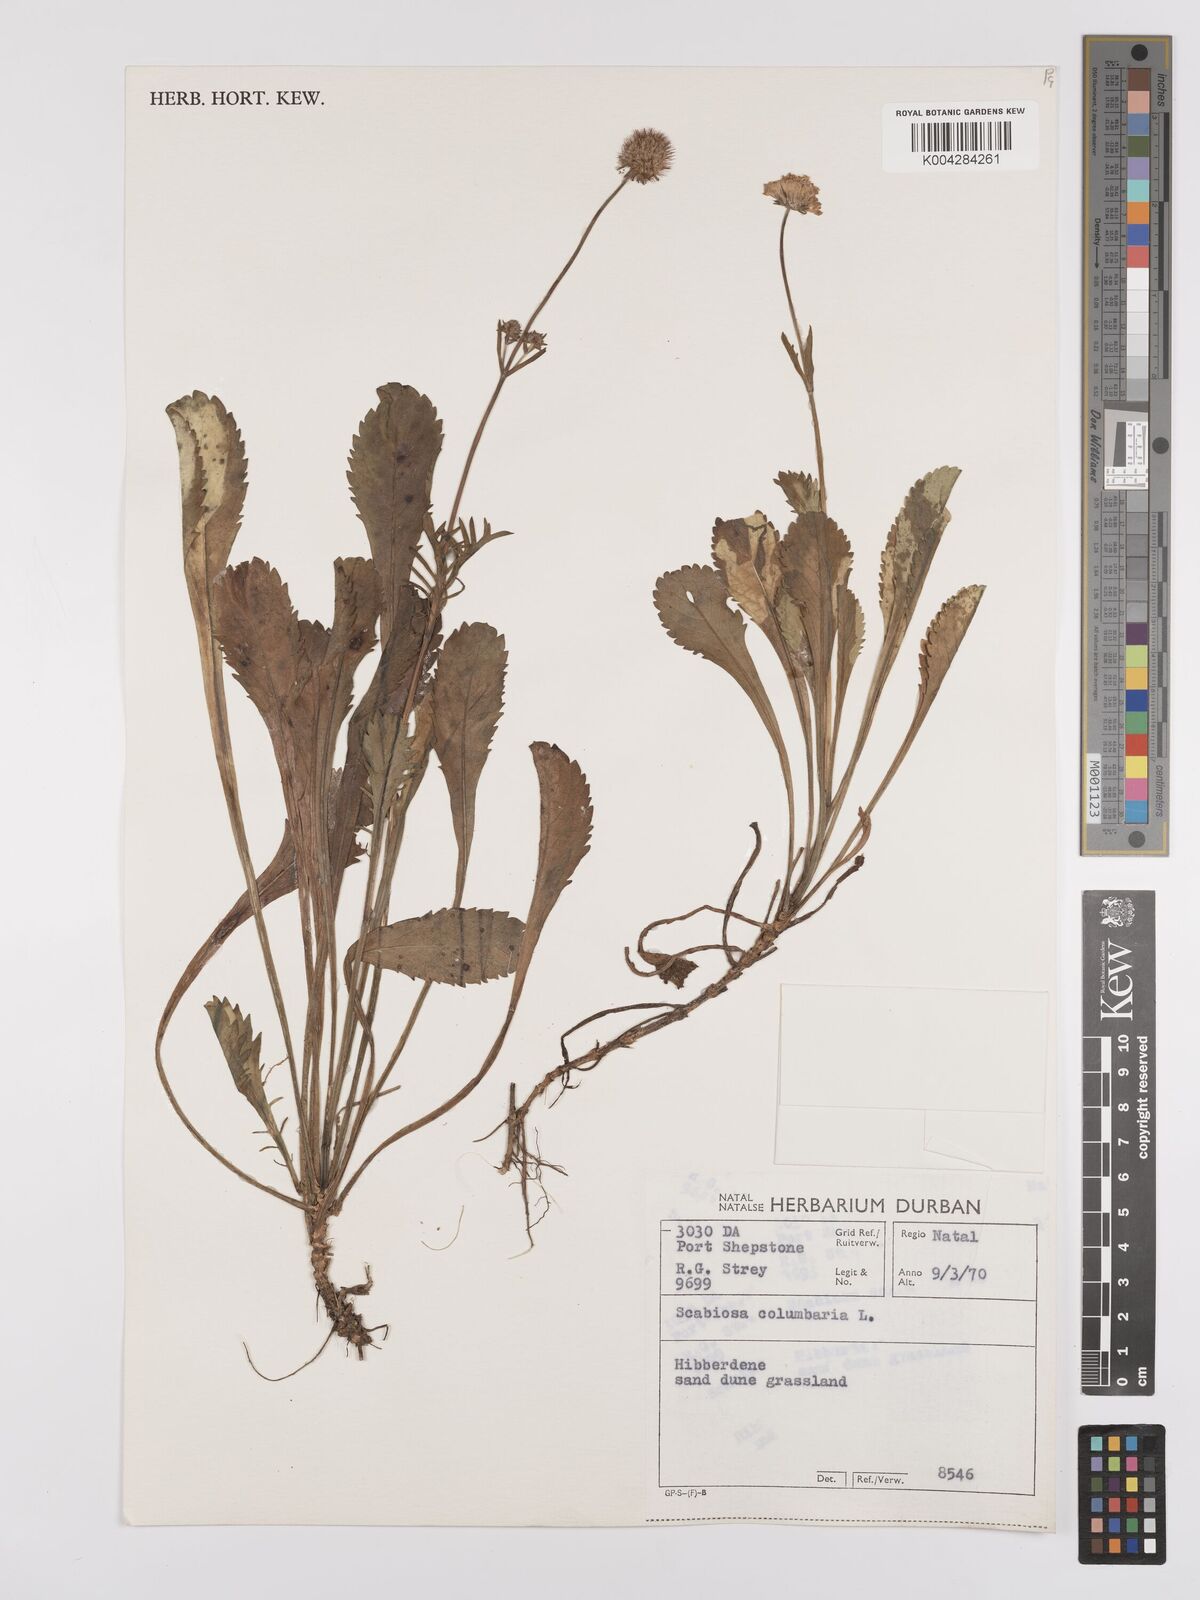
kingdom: Plantae
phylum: Tracheophyta
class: Magnoliopsida
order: Dipsacales
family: Caprifoliaceae
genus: Scabiosa
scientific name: Scabiosa columbaria
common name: Small scabious
